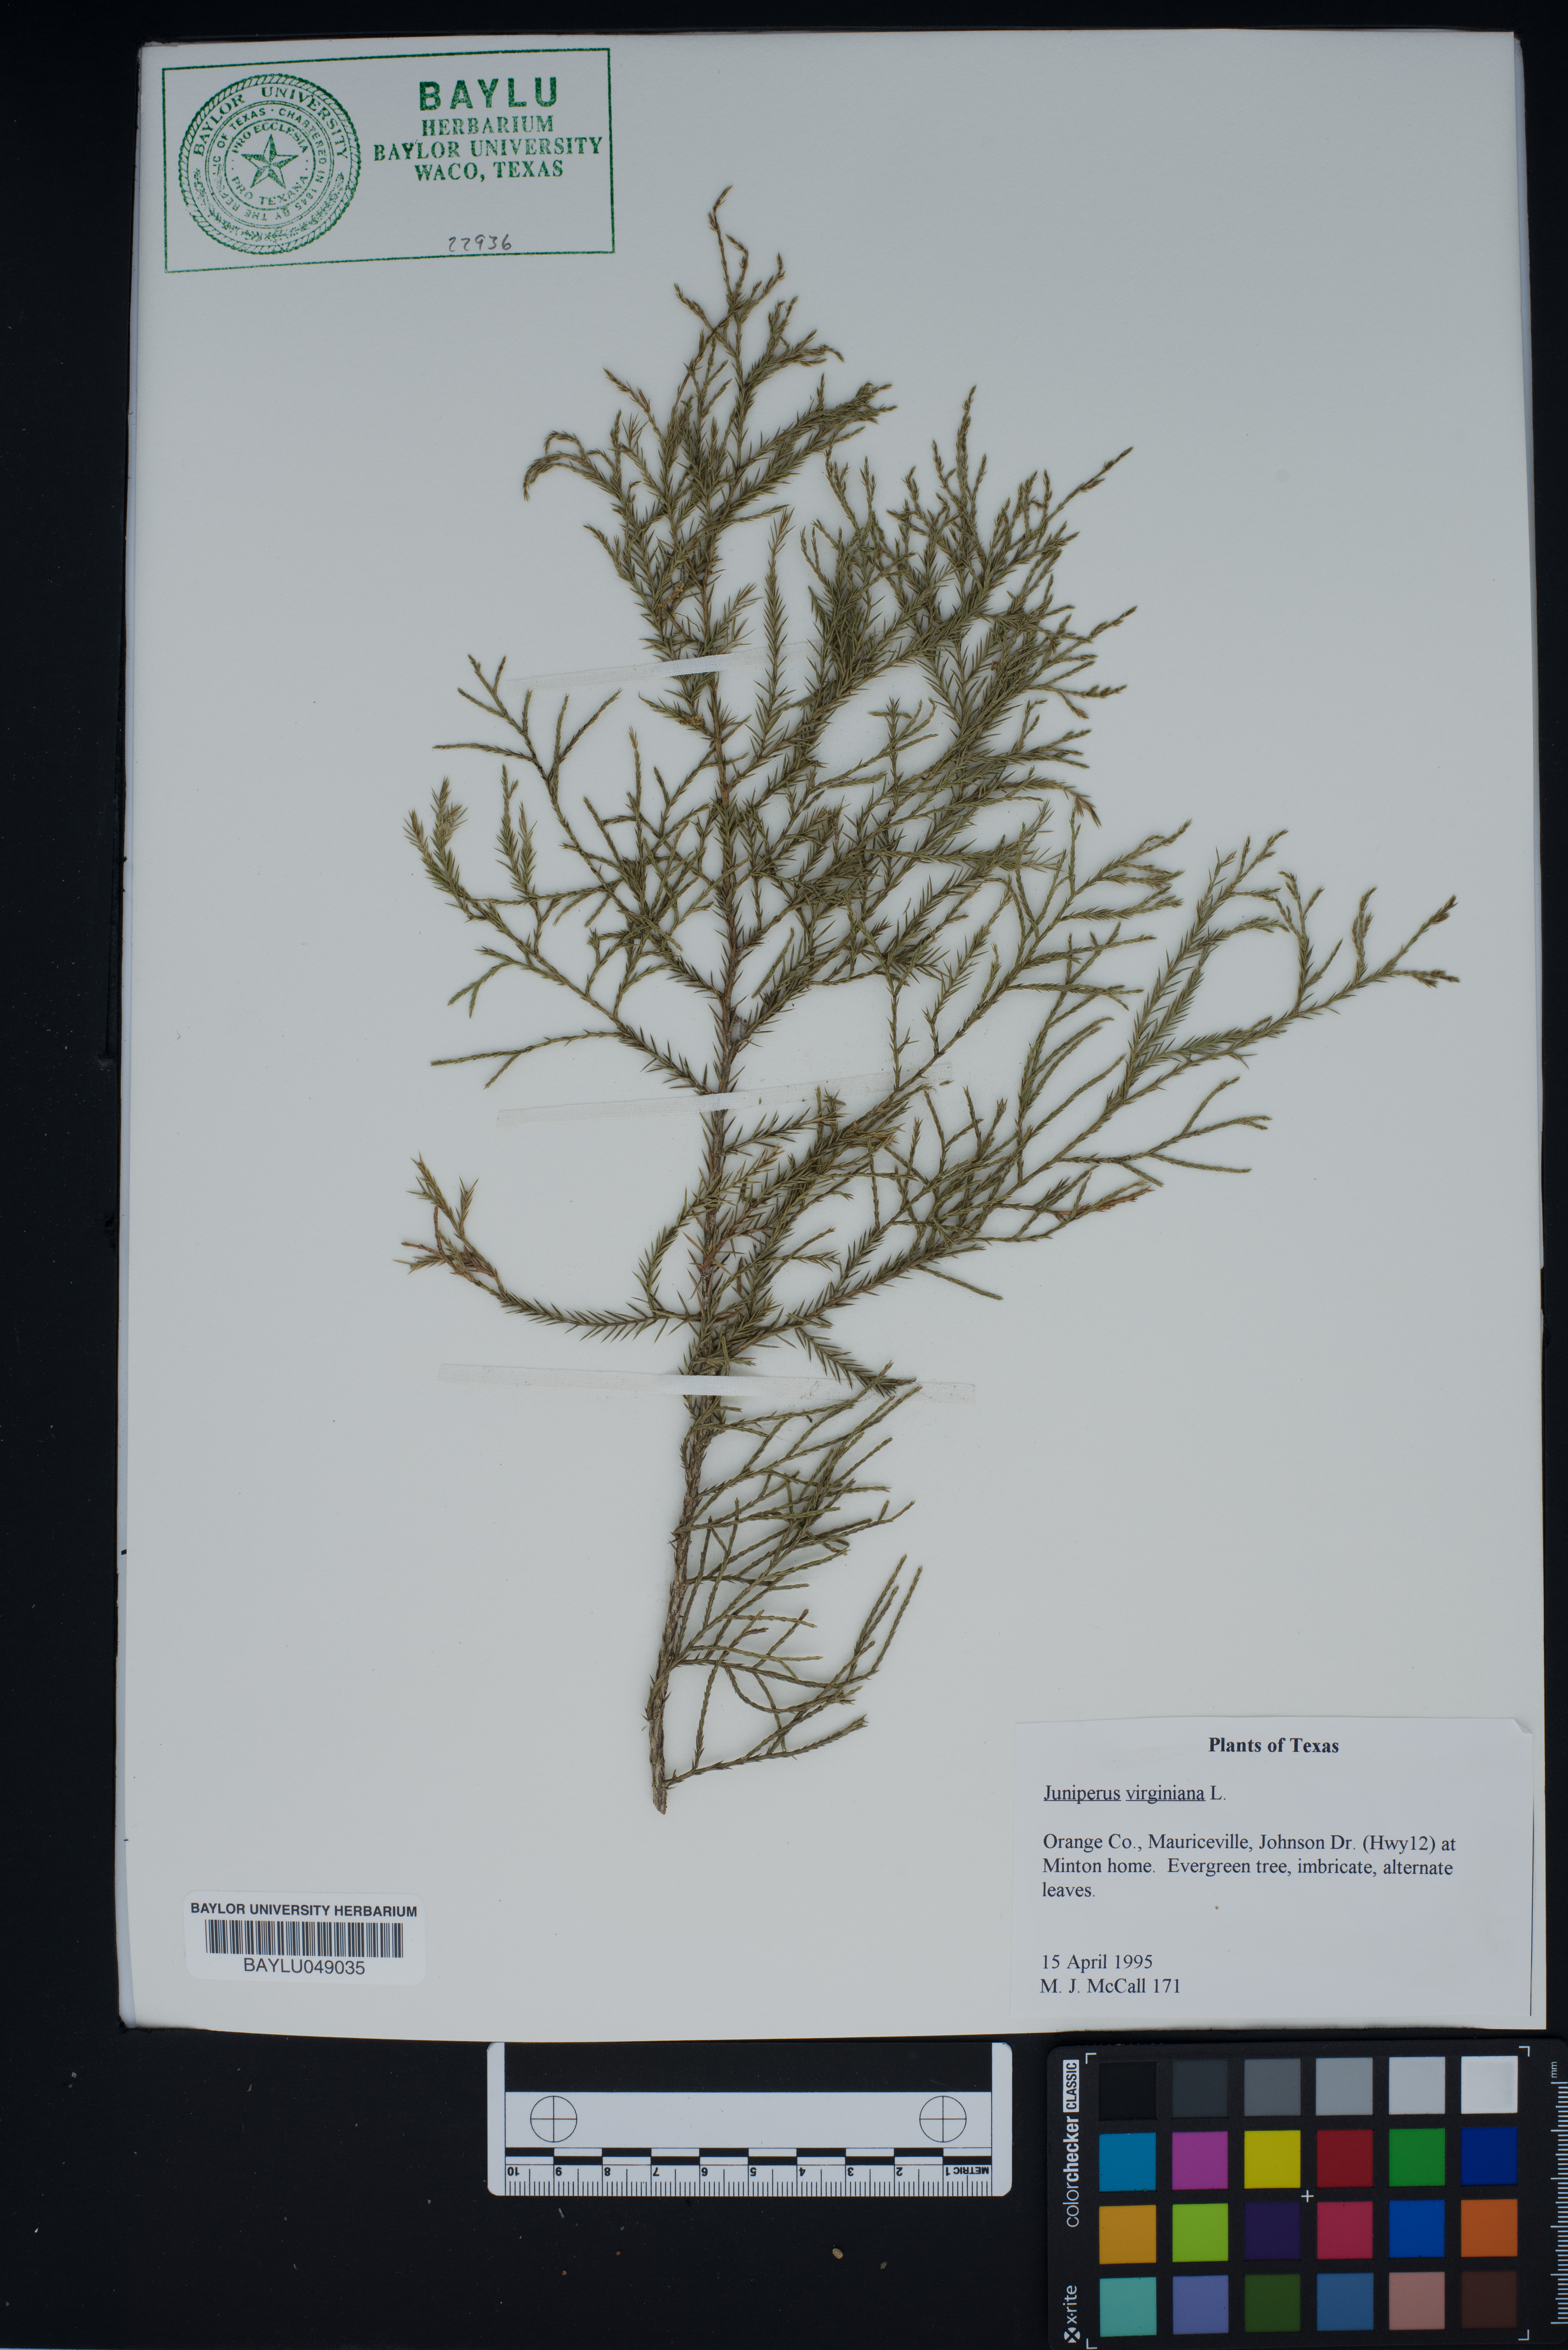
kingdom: Plantae
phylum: Tracheophyta
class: Pinopsida
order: Pinales
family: Cupressaceae
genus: Juniperus
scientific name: Juniperus virginiana
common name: Red juniper
